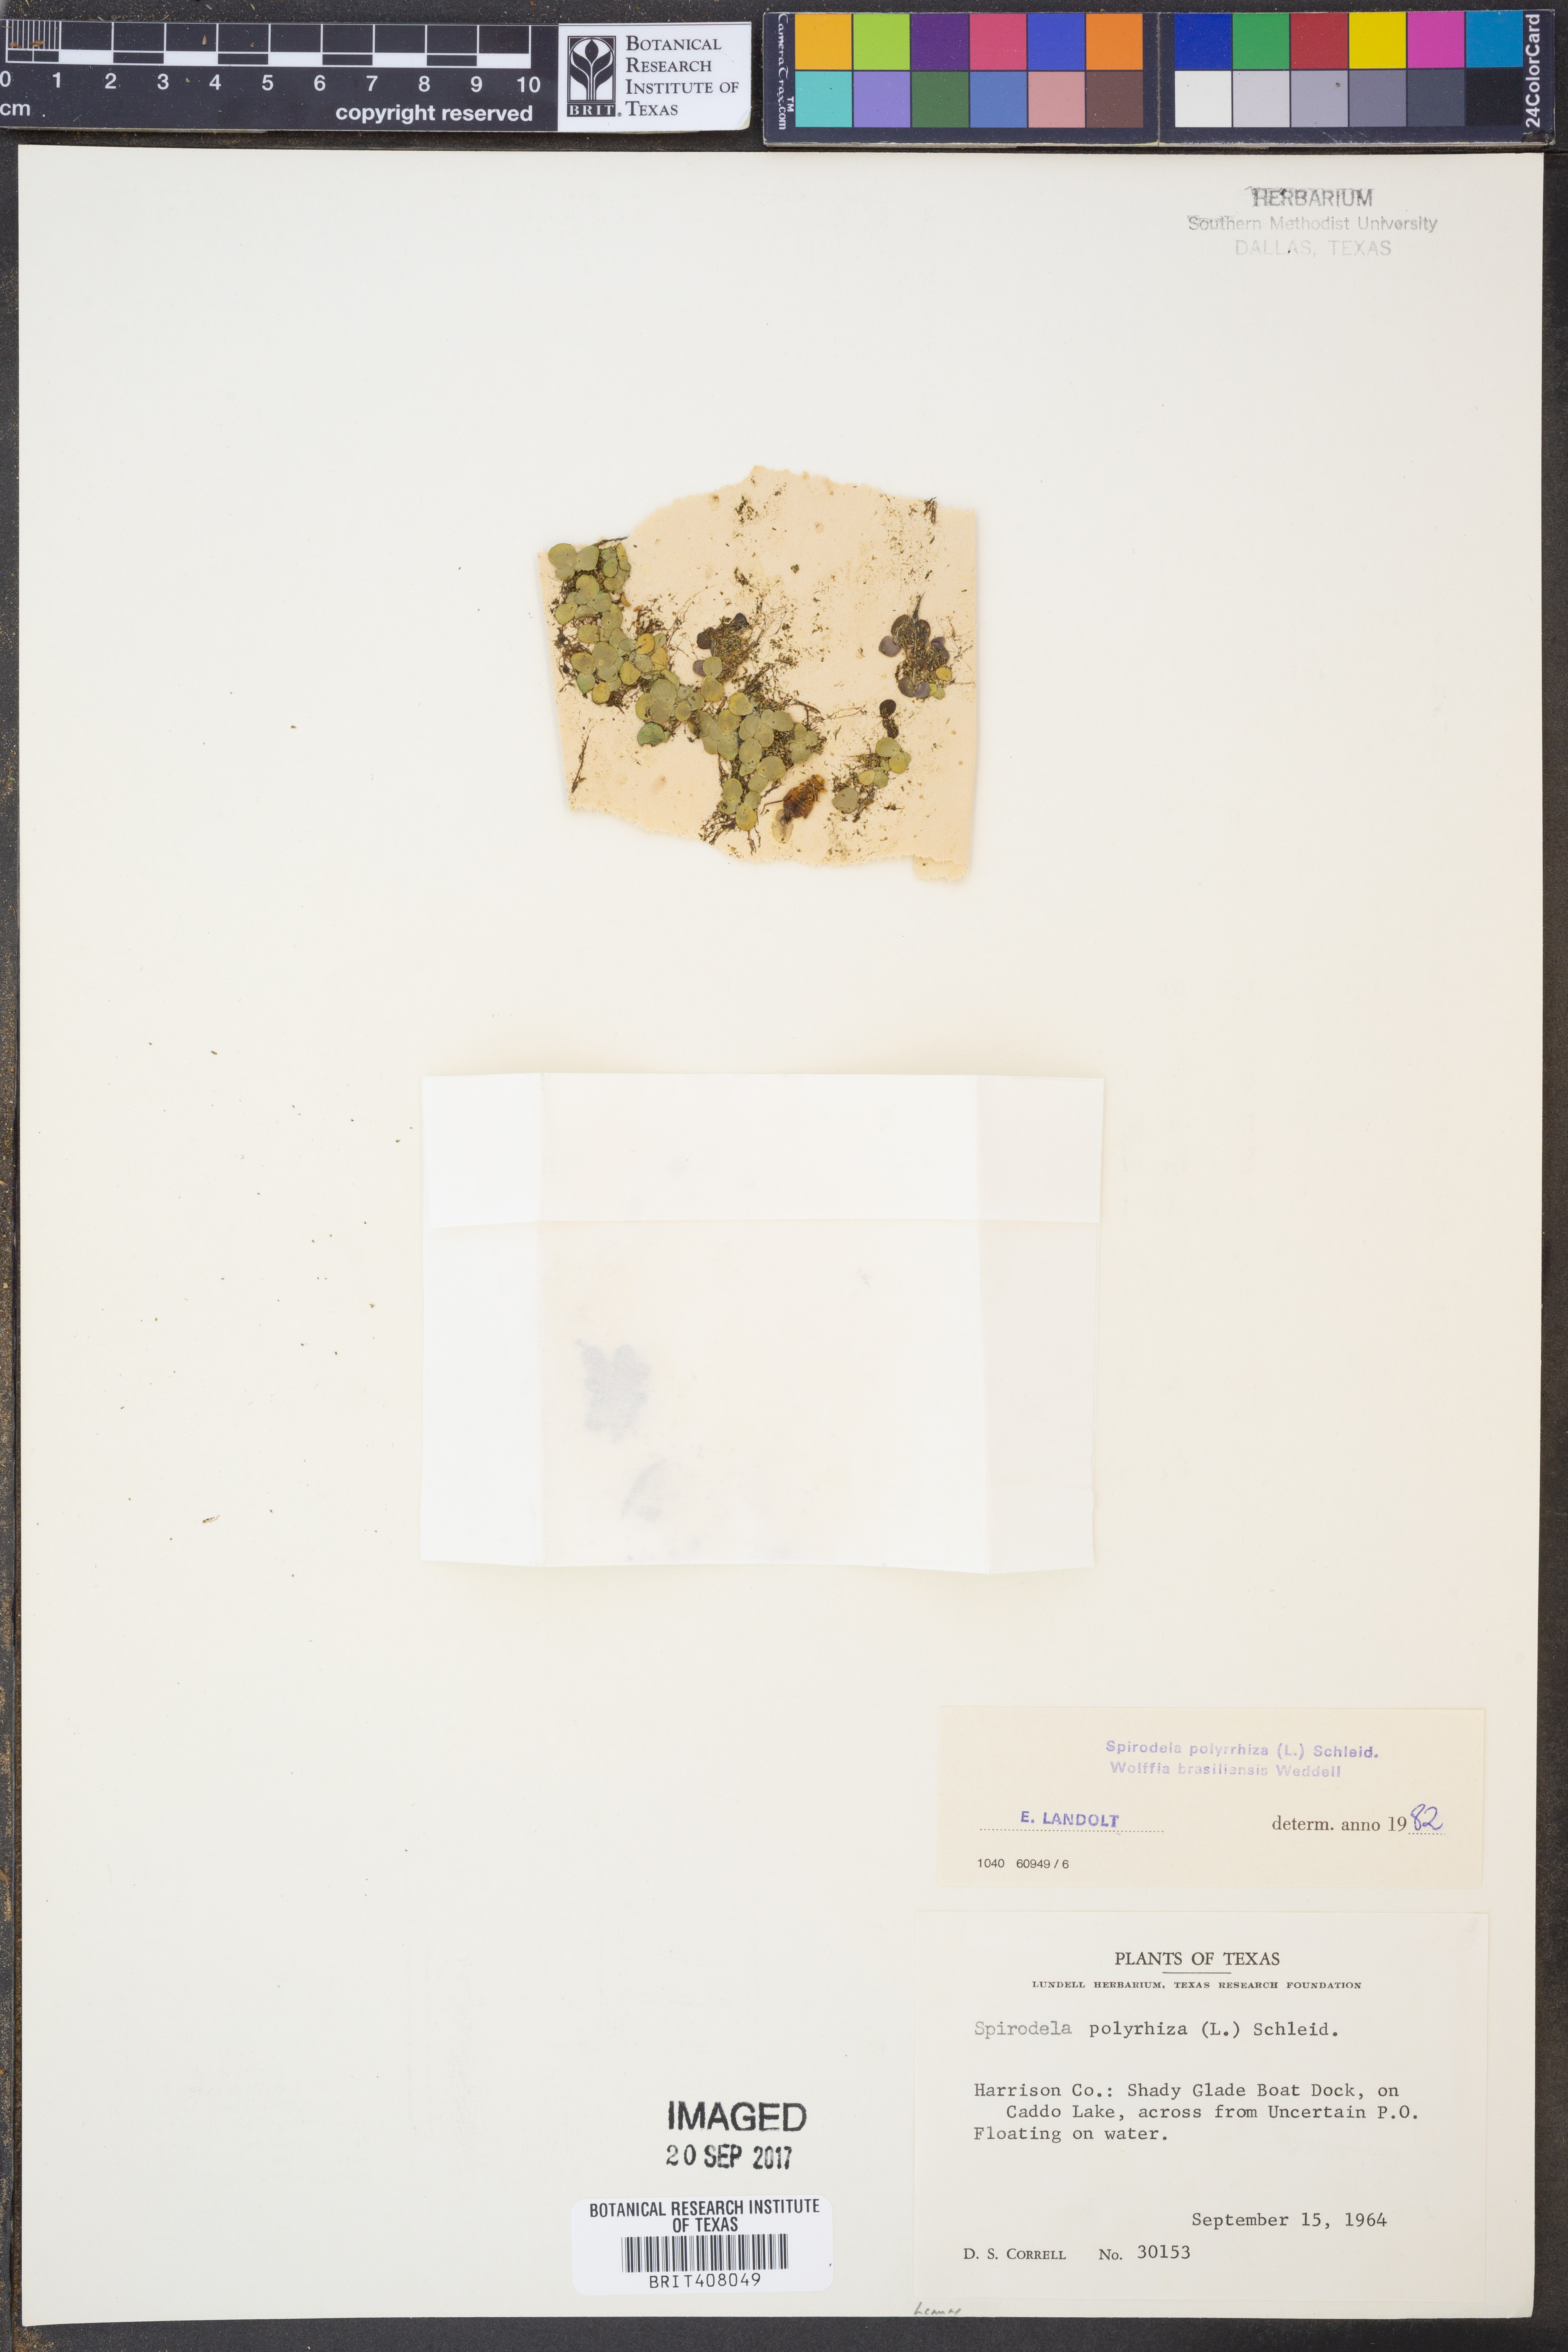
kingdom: Plantae
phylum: Tracheophyta
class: Liliopsida
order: Alismatales
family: Araceae
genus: Spirodela
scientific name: Spirodela polyrhiza
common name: Great duckweed
